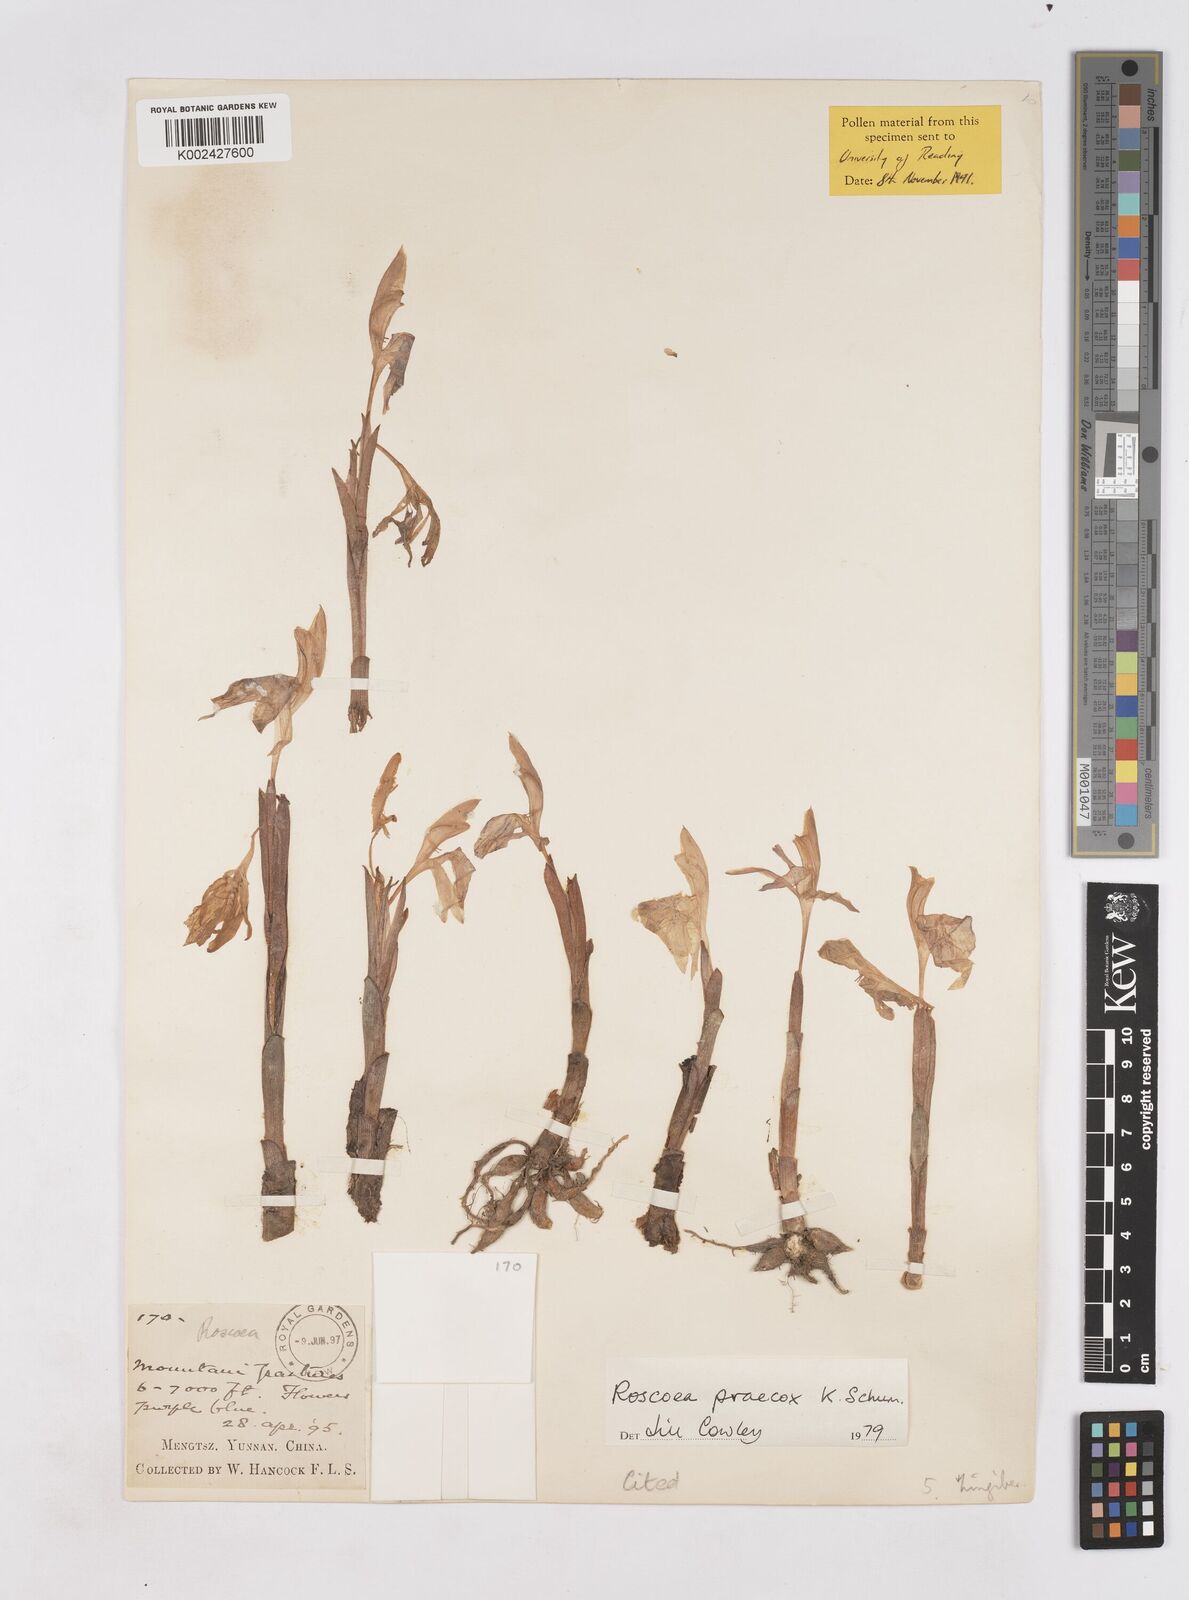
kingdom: Plantae
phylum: Tracheophyta
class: Liliopsida
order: Zingiberales
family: Zingiberaceae
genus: Roscoea
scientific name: Roscoea praecox
